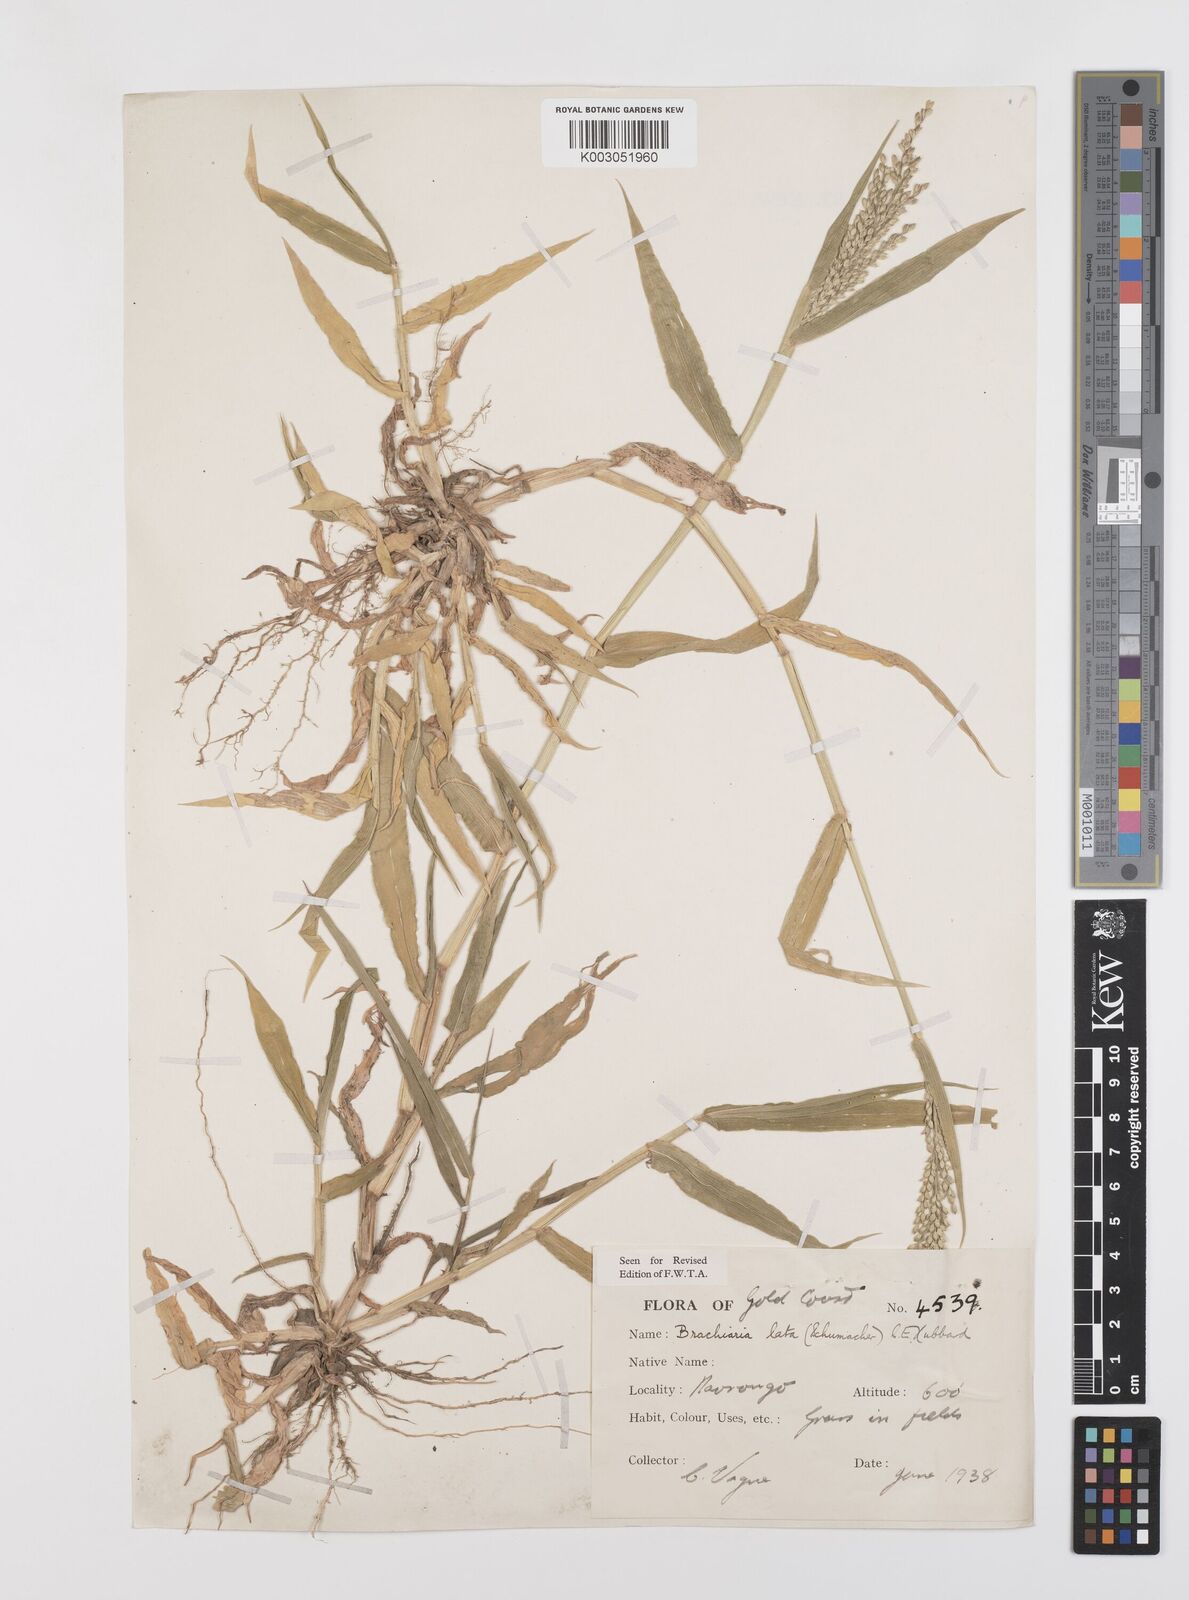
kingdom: Plantae
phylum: Tracheophyta
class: Liliopsida
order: Poales
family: Poaceae
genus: Urochloa
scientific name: Urochloa lata
